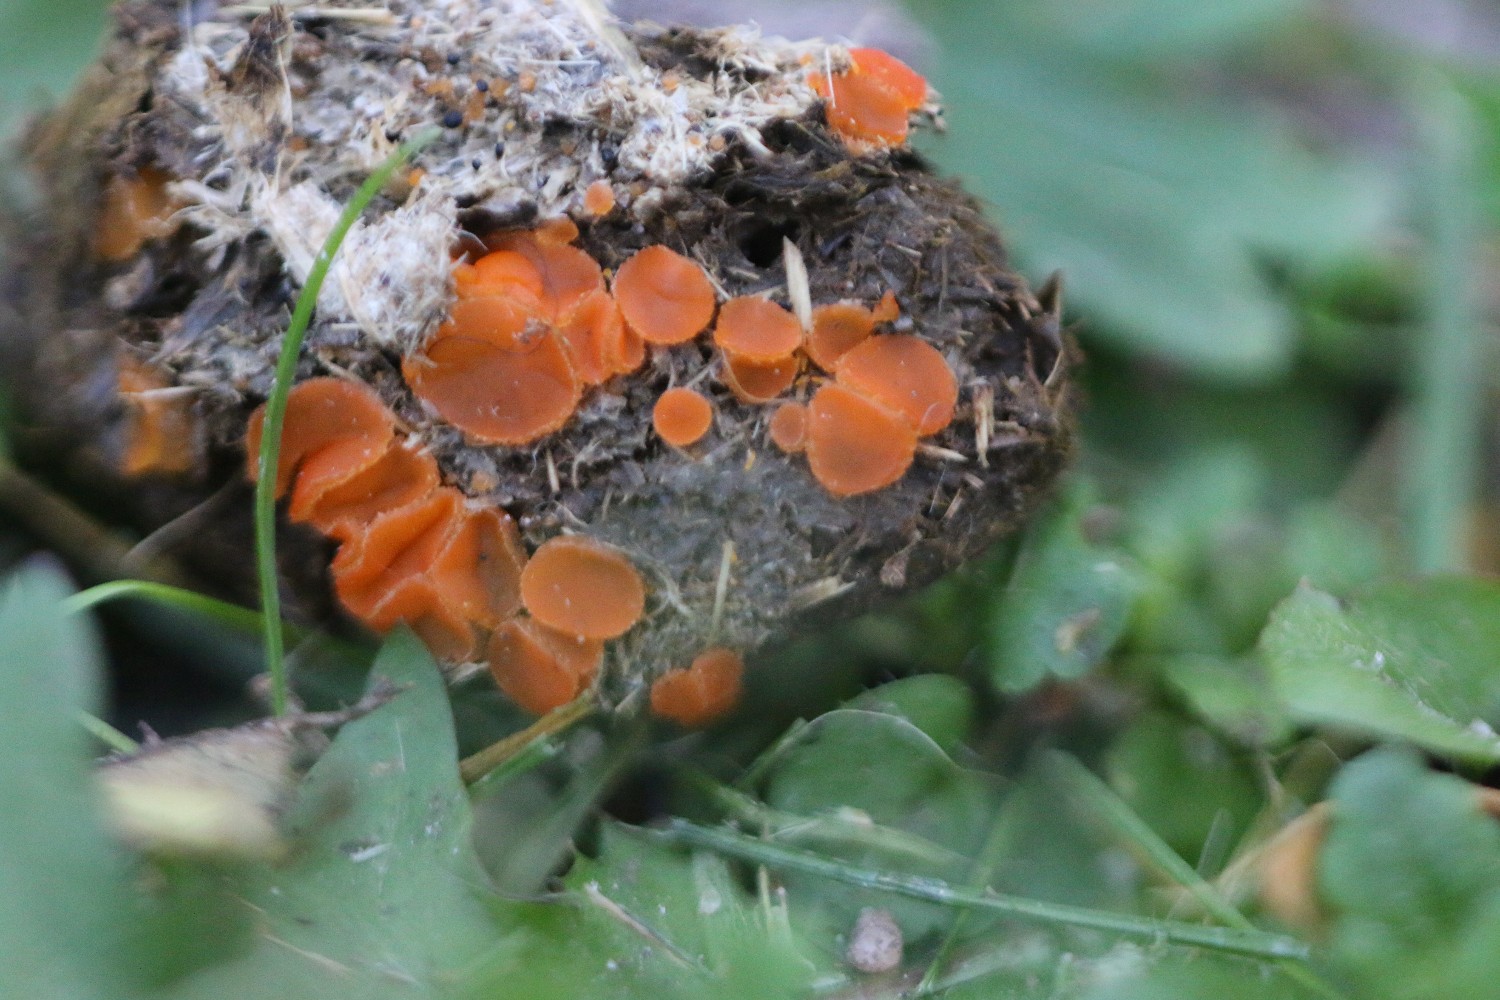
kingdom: Fungi
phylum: Ascomycota
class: Pezizomycetes
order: Pezizales
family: Pyronemataceae
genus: Cheilymenia
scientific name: Cheilymenia granulata
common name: møgbæger
